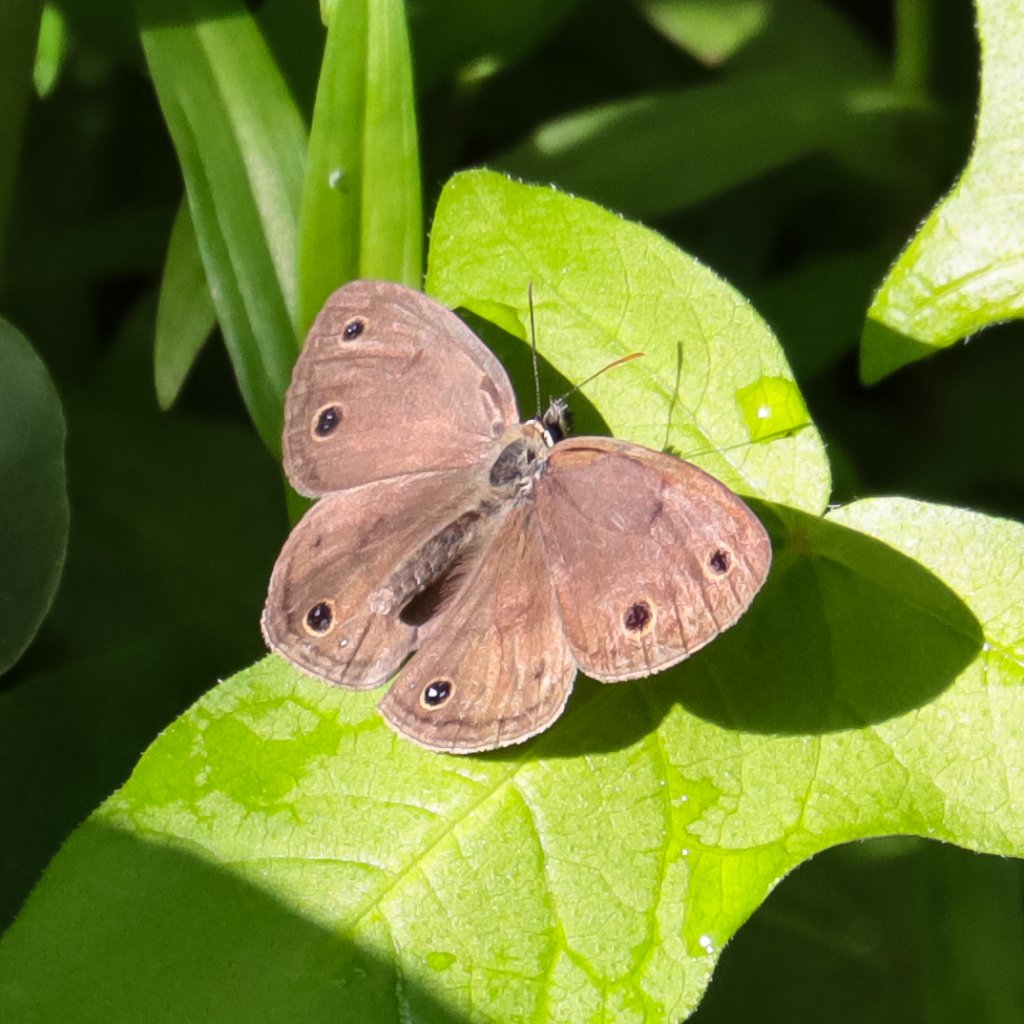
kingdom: Animalia
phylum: Arthropoda
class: Insecta
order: Lepidoptera
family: Nymphalidae
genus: Euptychia
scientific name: Euptychia cymela
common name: Little Wood Satyr
